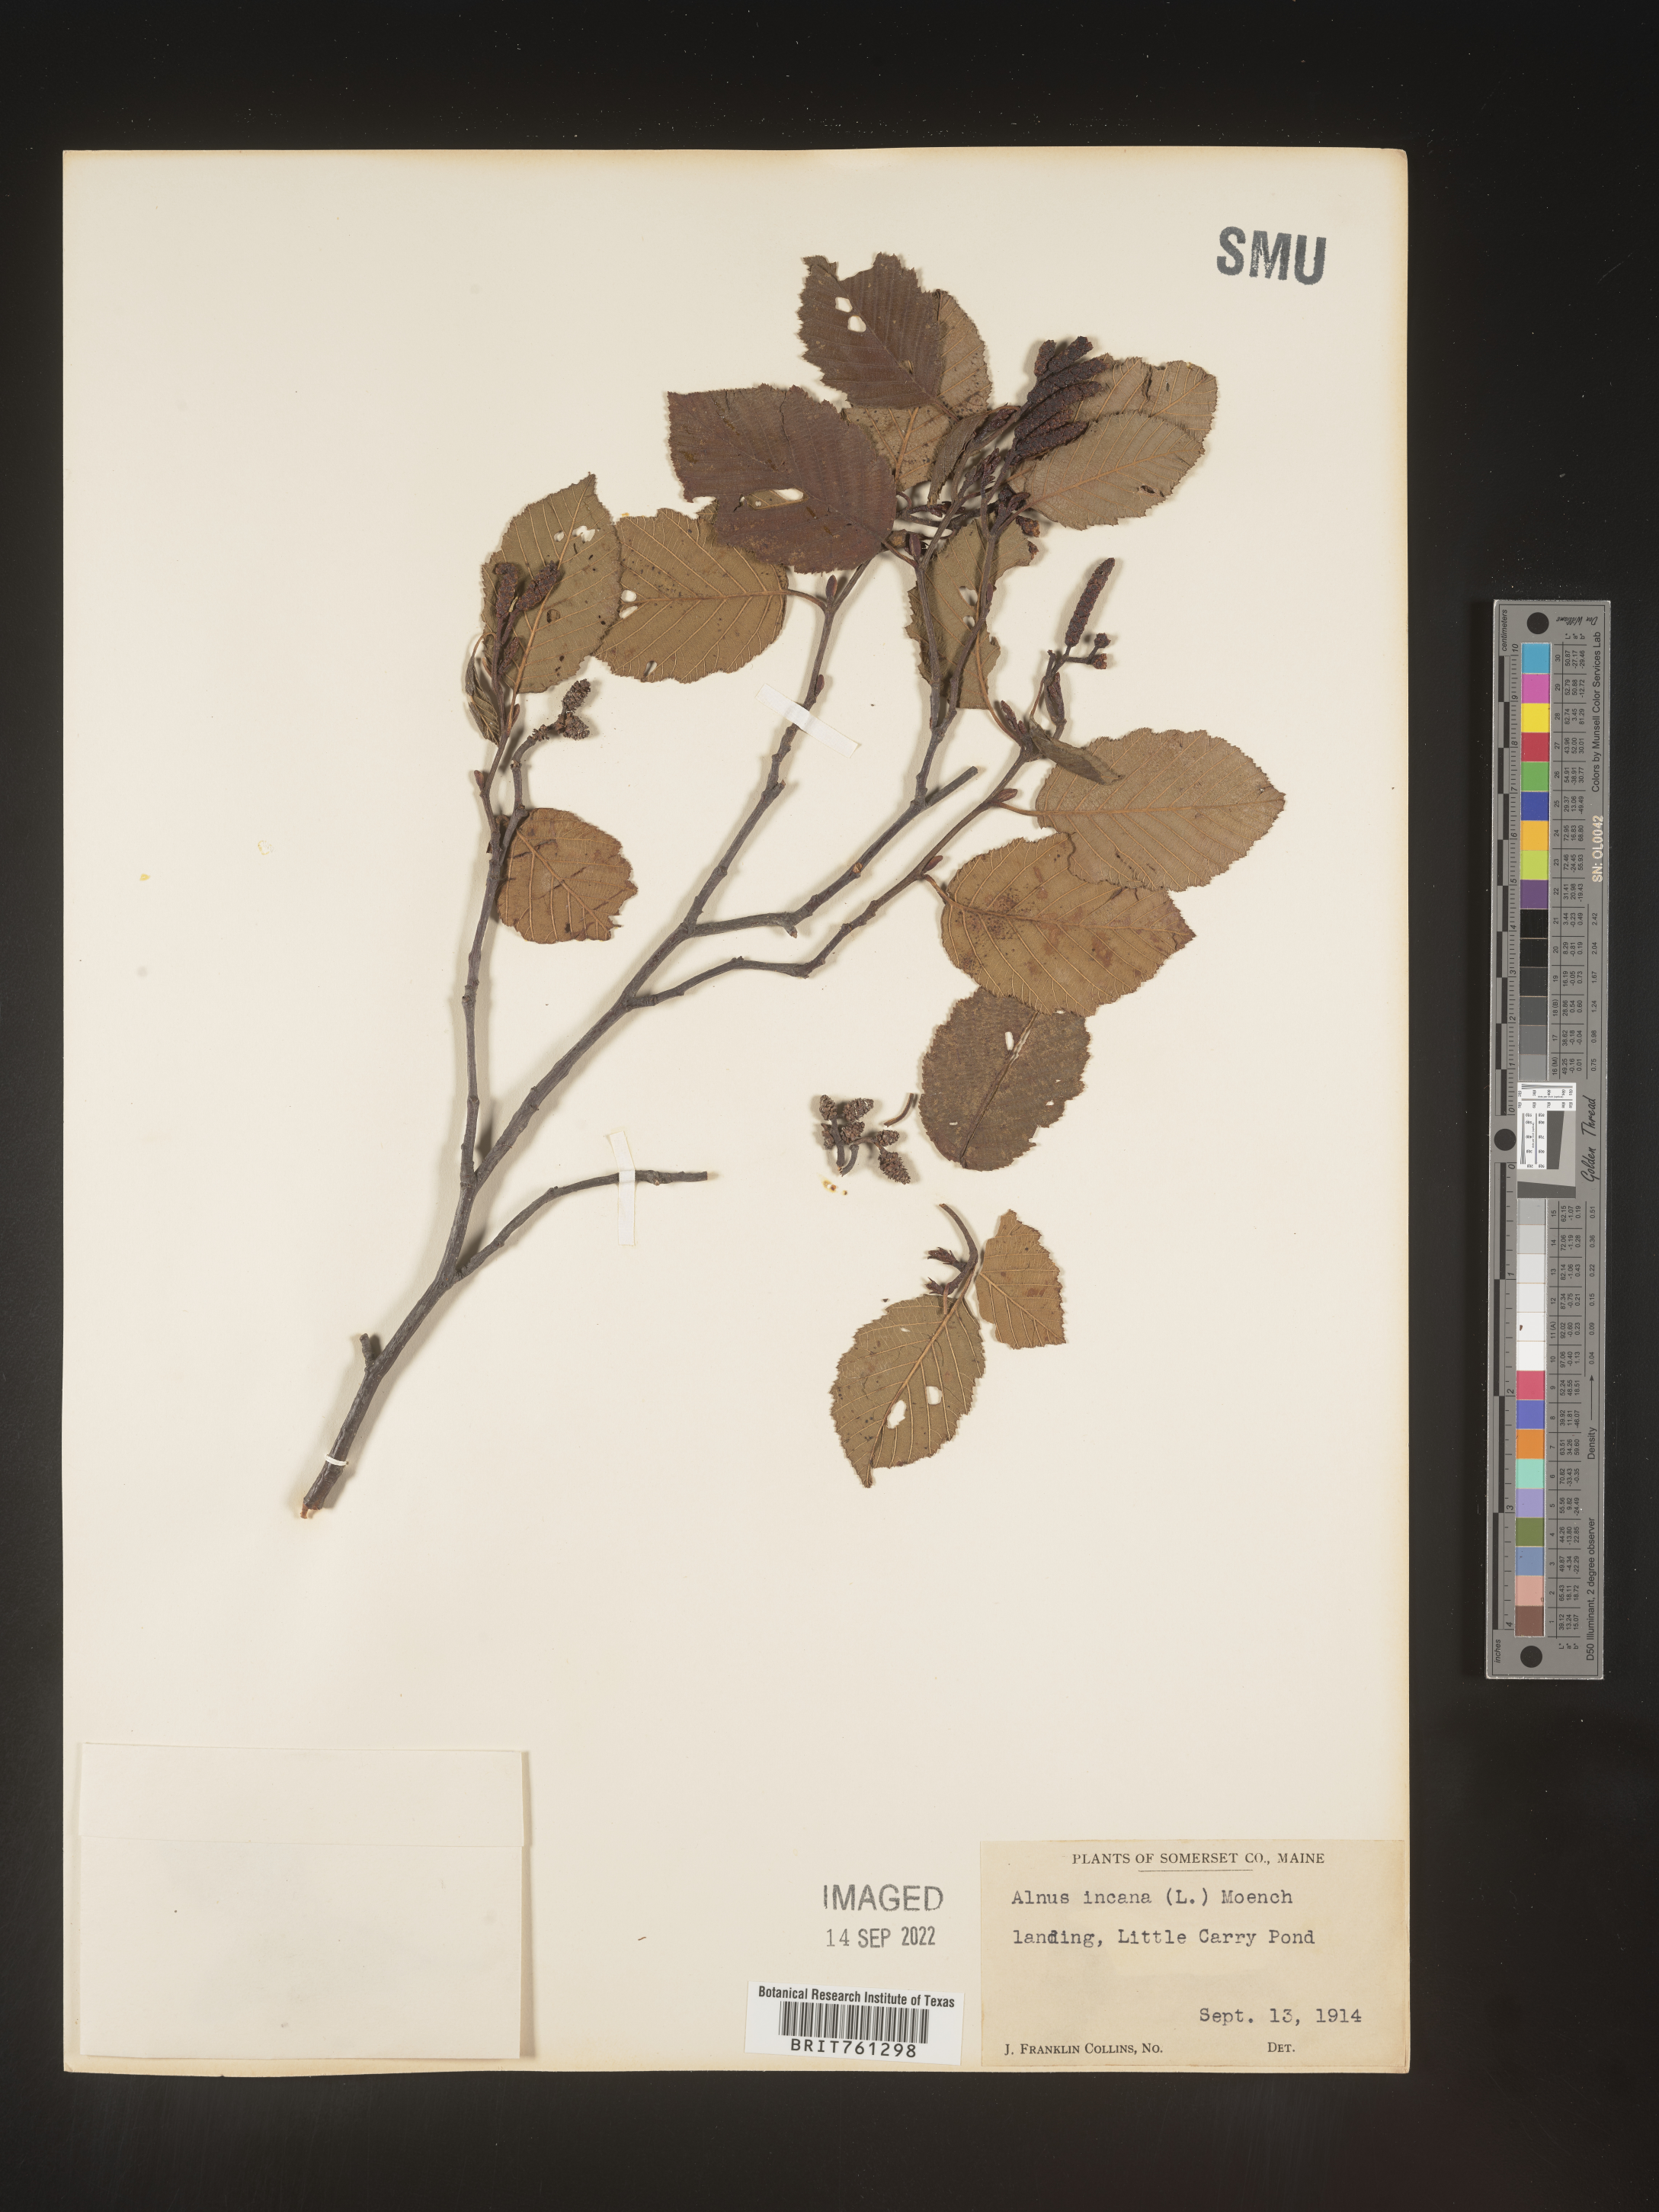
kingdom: Plantae
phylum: Tracheophyta
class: Magnoliopsida
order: Fagales
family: Betulaceae
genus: Alnus
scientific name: Alnus incana
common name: Grey alder
